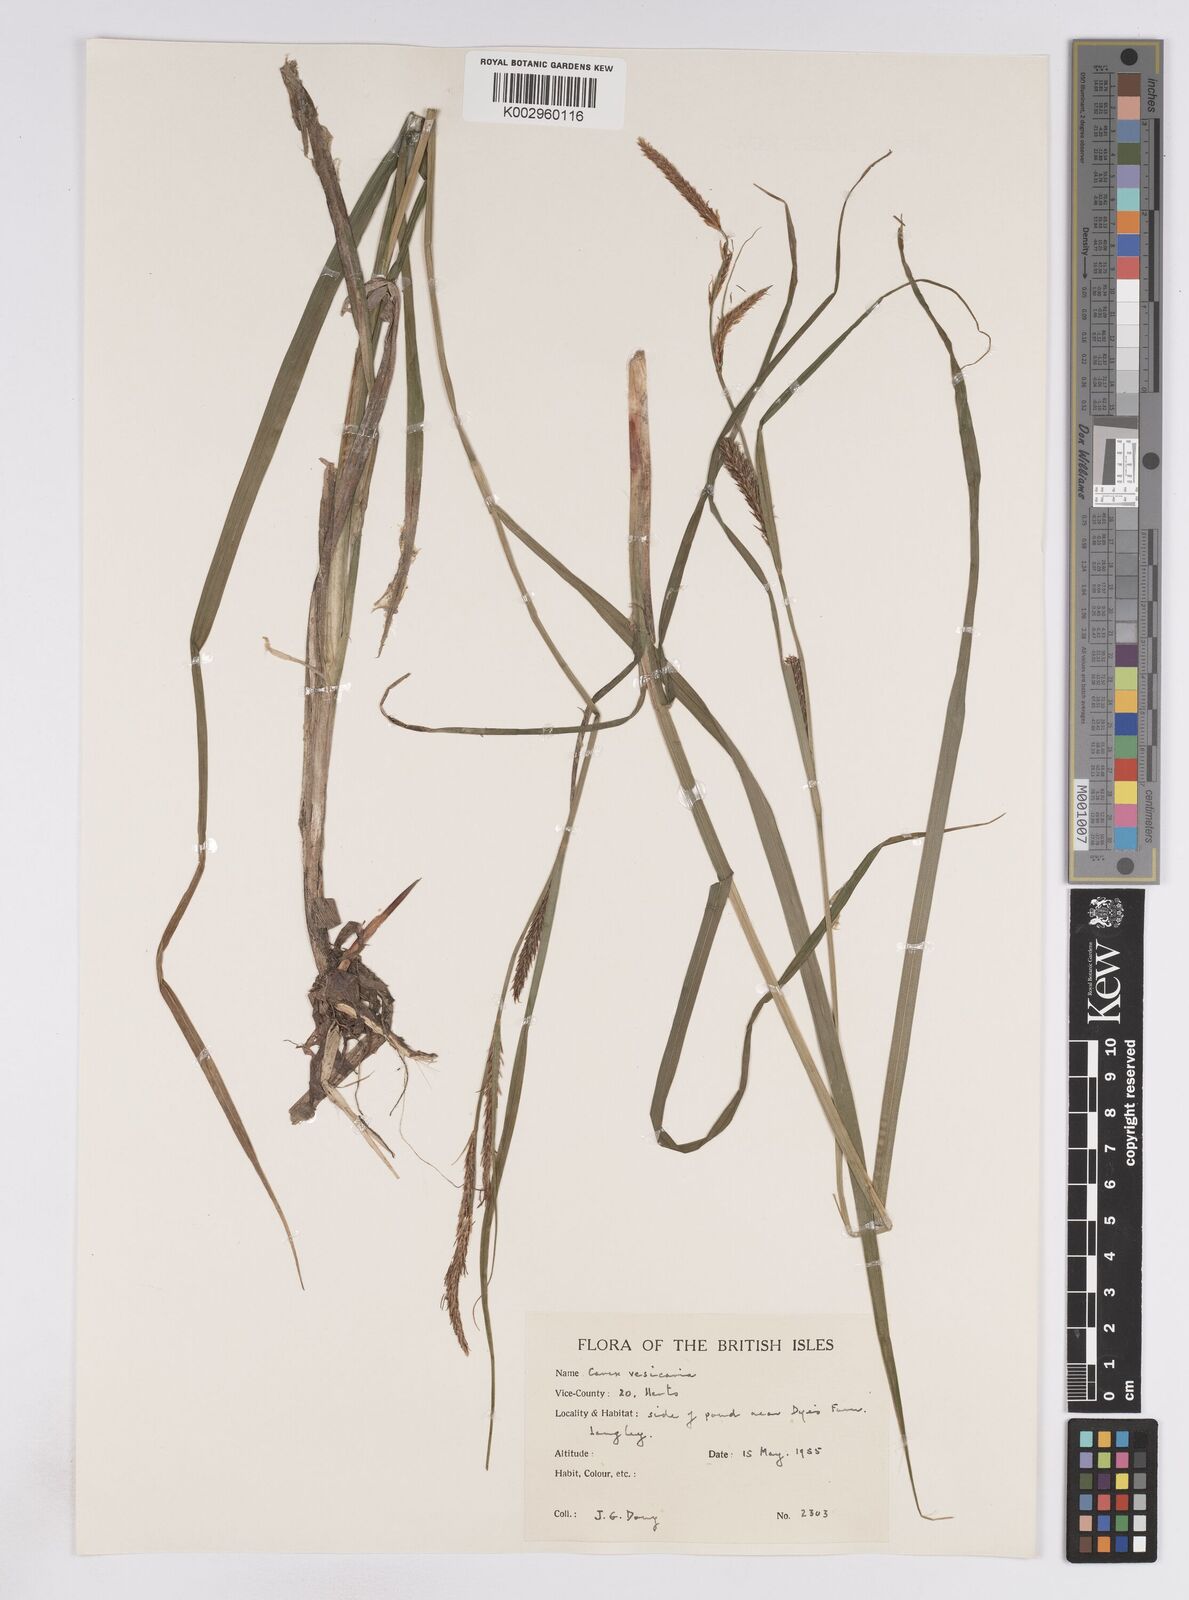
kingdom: Plantae
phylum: Tracheophyta
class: Liliopsida
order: Poales
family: Cyperaceae
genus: Carex
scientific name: Carex vesicaria
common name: Bladder-sedge
